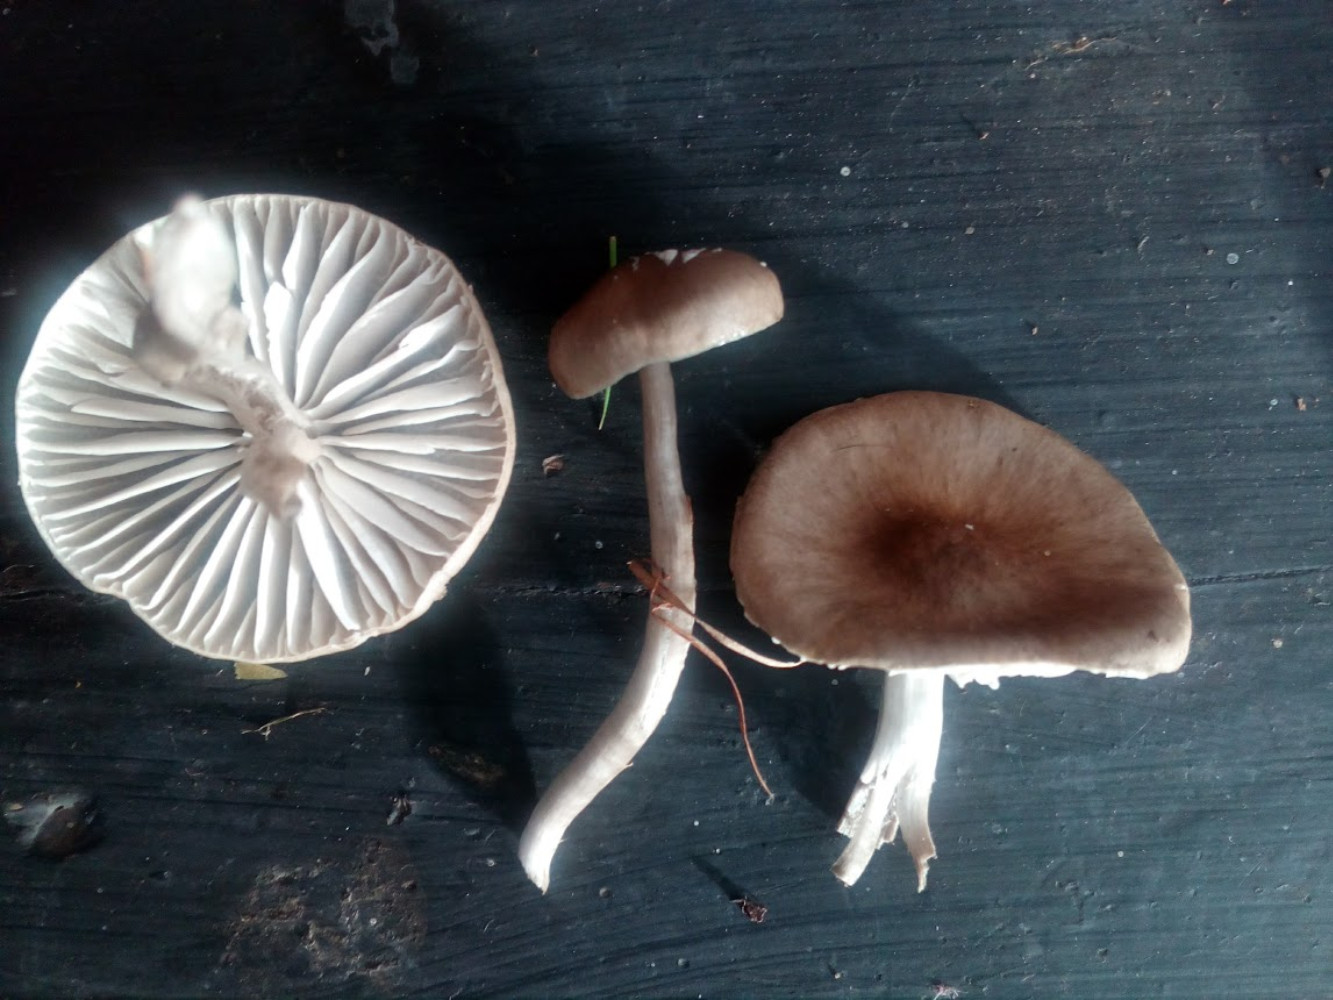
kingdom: Fungi
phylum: Basidiomycota
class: Agaricomycetes
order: Agaricales
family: Hygrophoraceae
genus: Gliophorus
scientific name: Gliophorus irrigatus
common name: slimet vokshat
